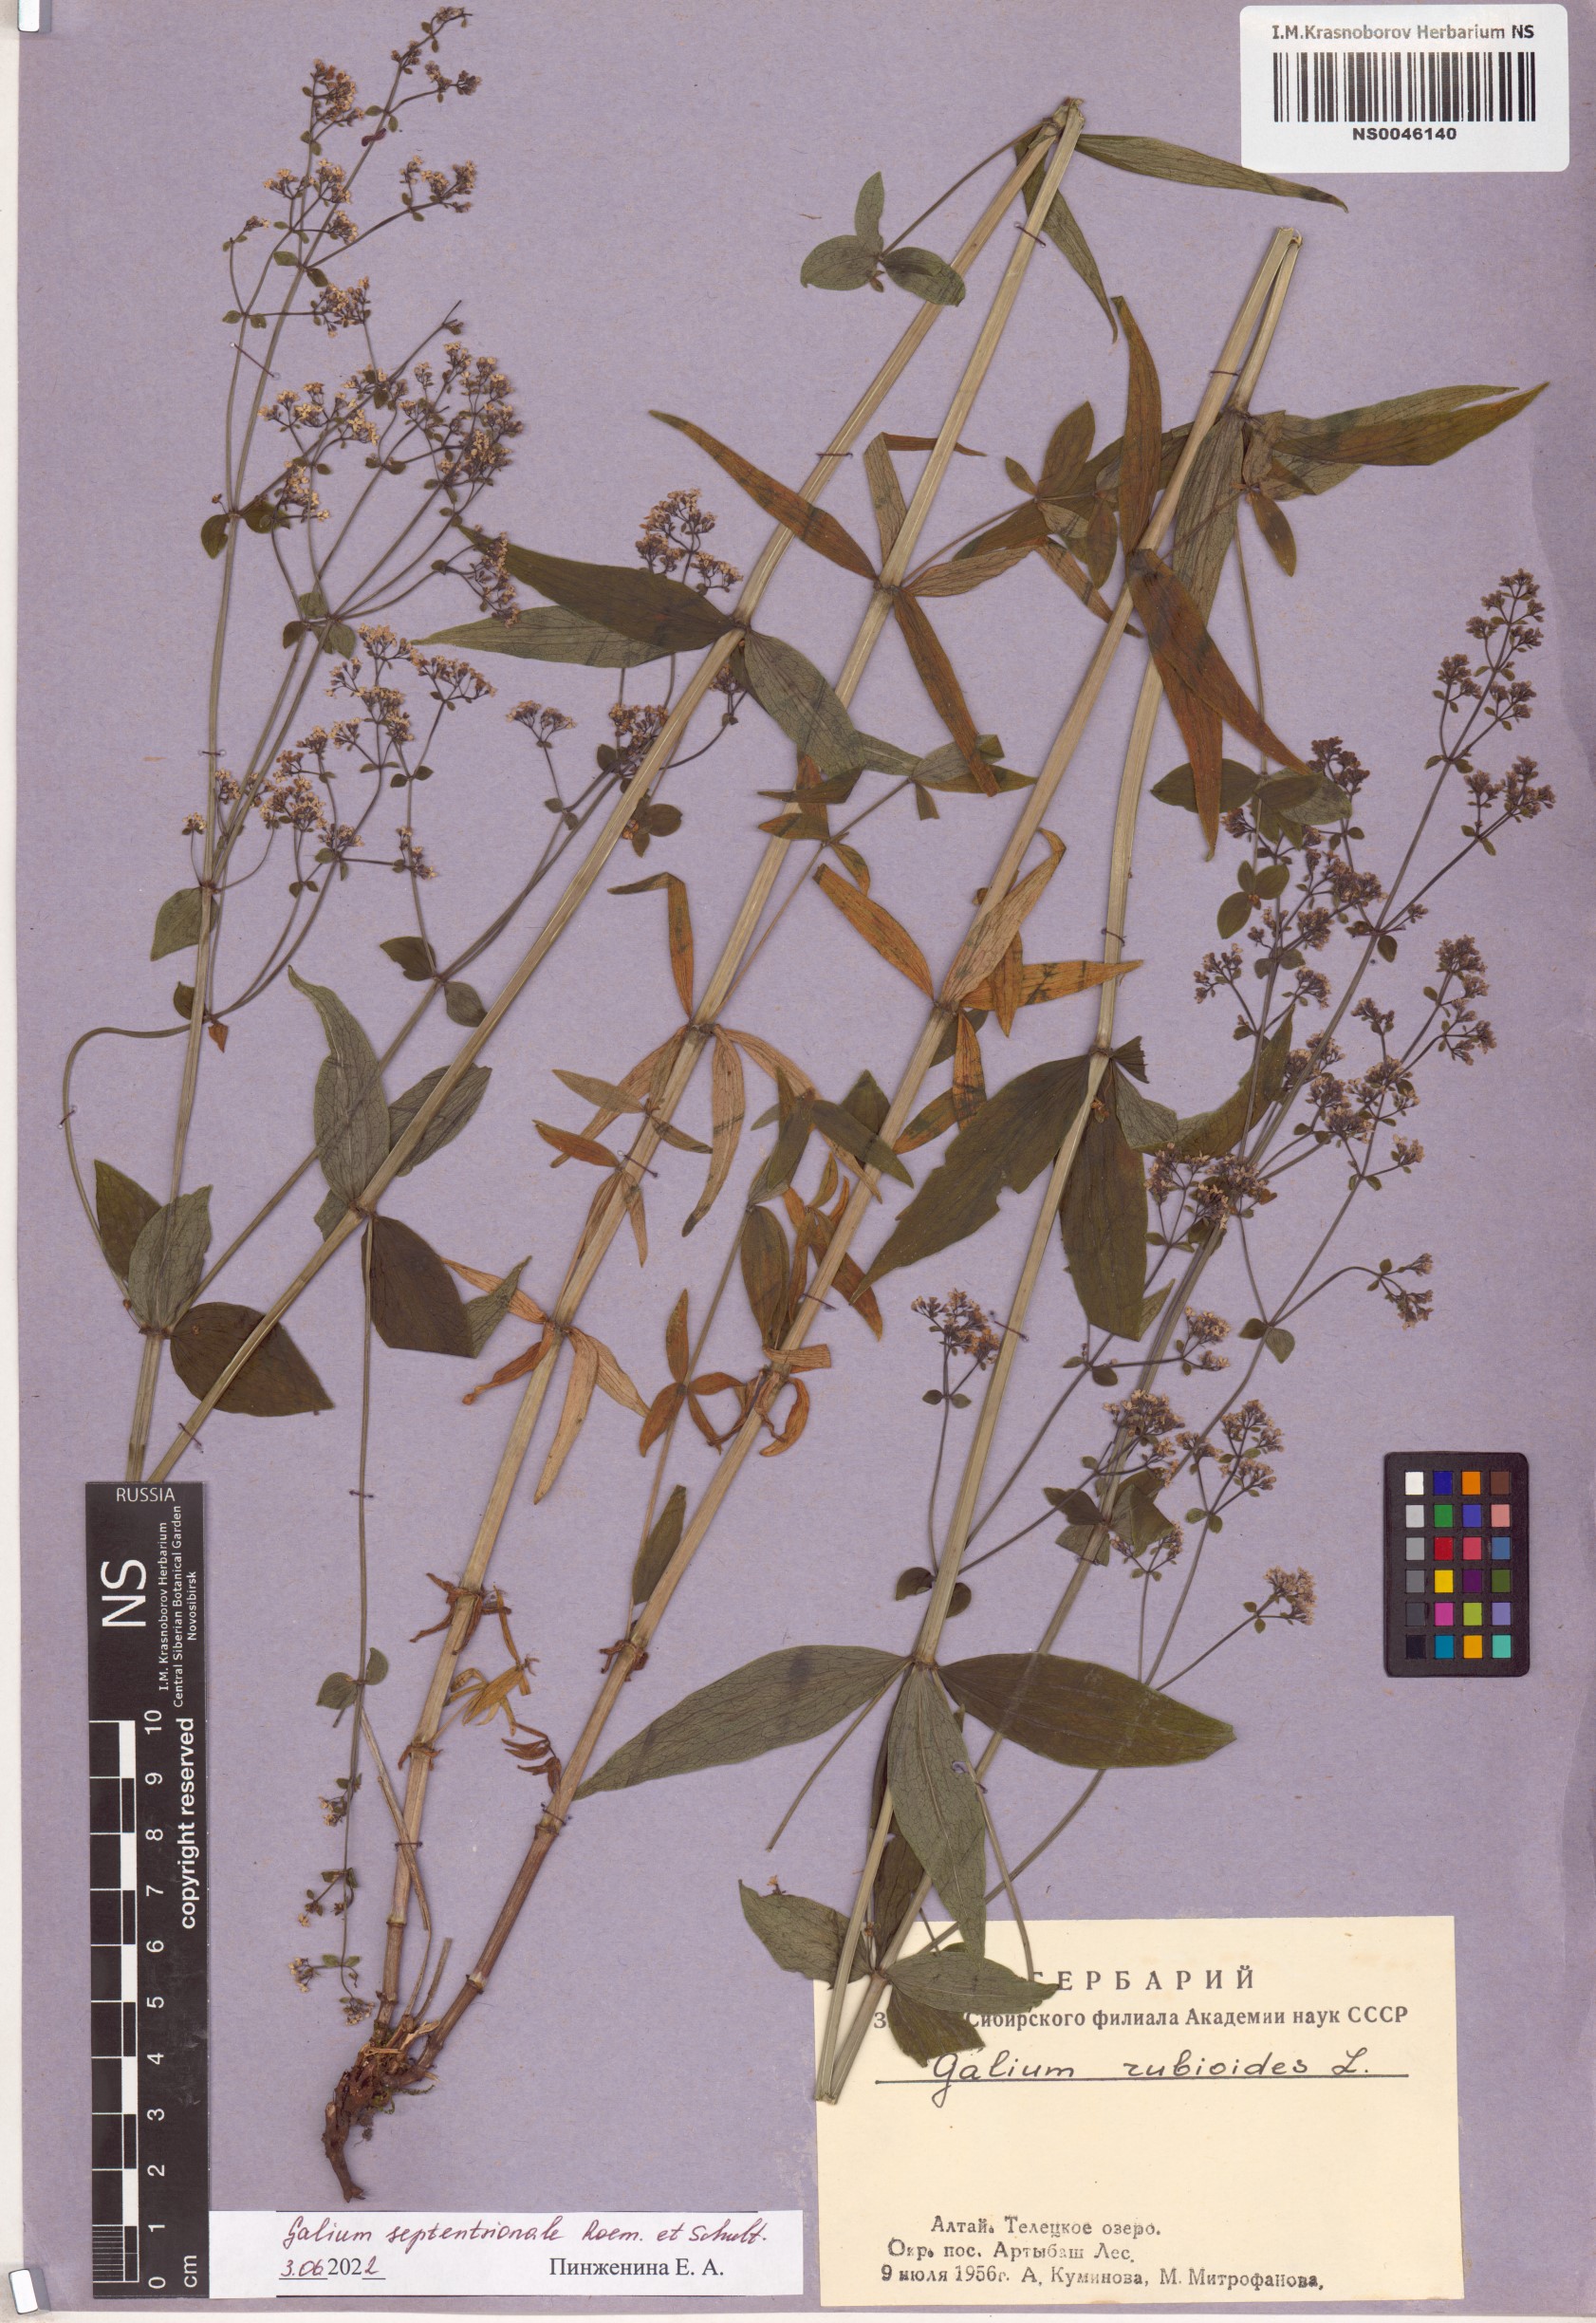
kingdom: Plantae
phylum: Tracheophyta
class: Magnoliopsida
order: Gentianales
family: Rubiaceae
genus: Galium
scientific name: Galium boreale
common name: Northern bedstraw
